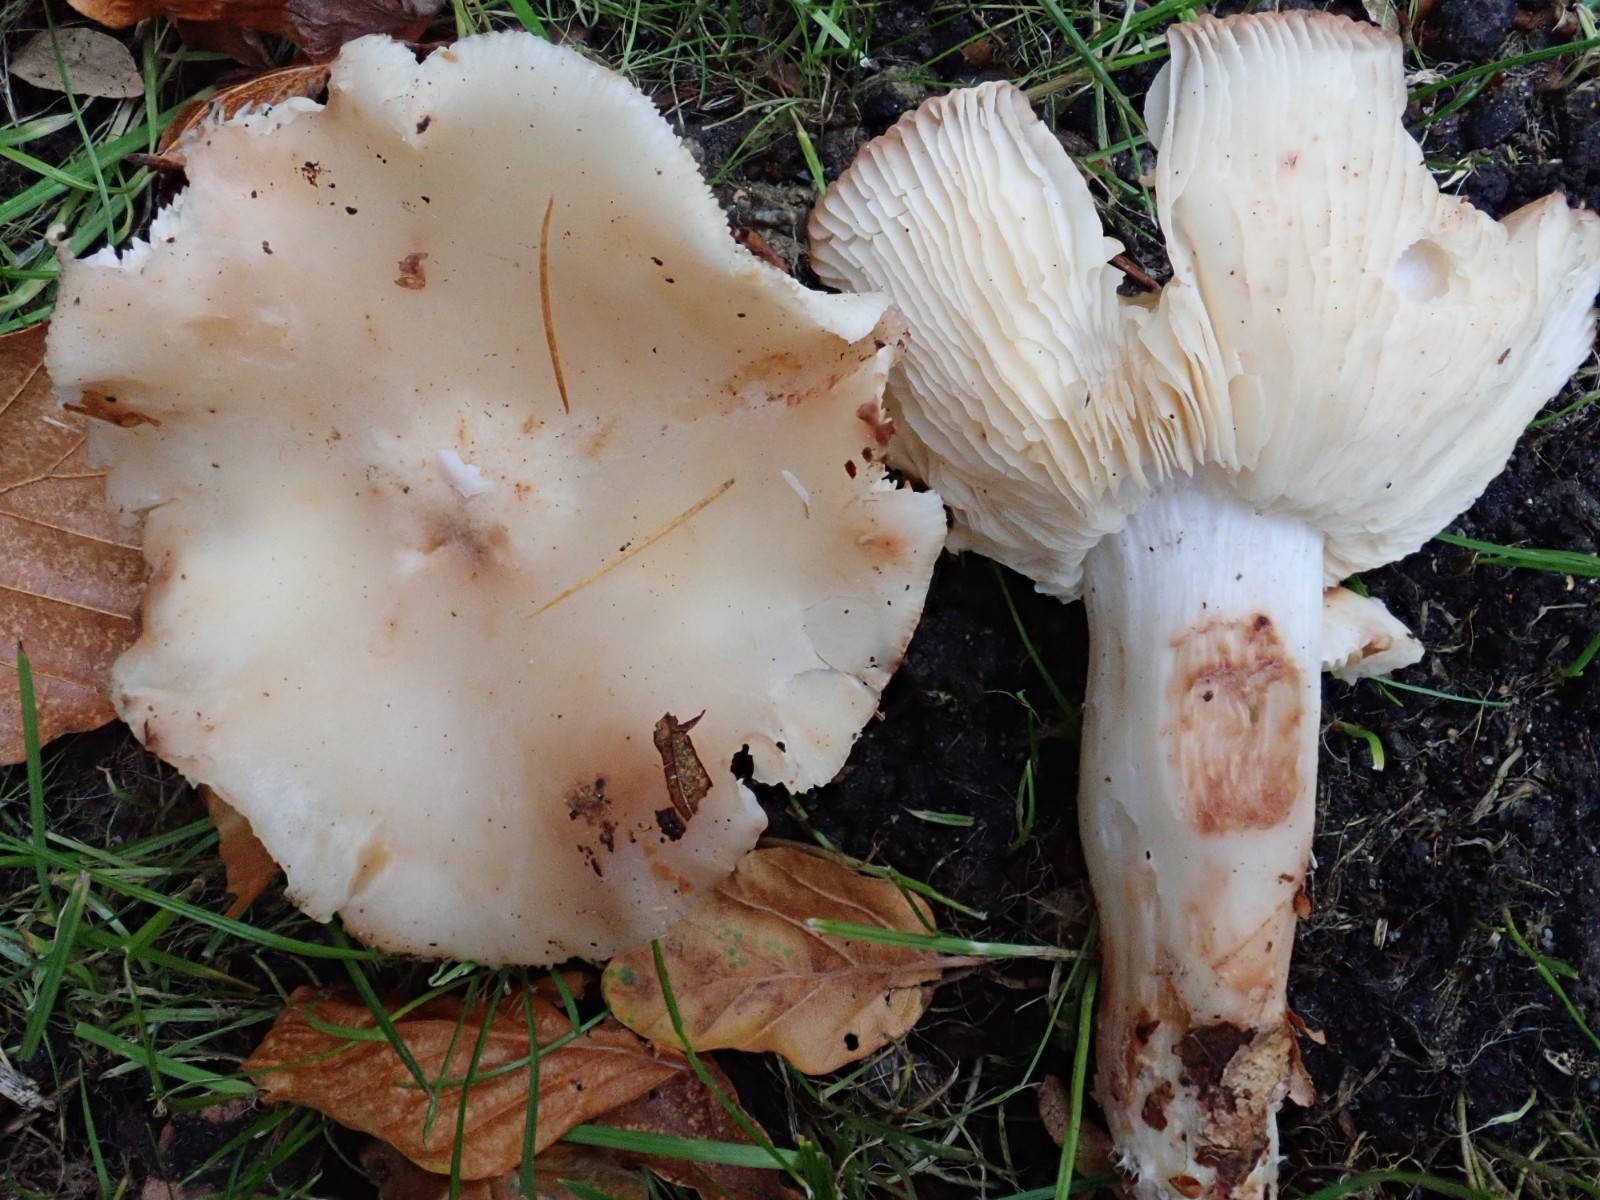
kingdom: Fungi
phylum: Basidiomycota
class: Agaricomycetes
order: Agaricales
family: Tricholomataceae
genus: Tricholoma
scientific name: Tricholoma lascivum
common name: stinkende ridderhat
